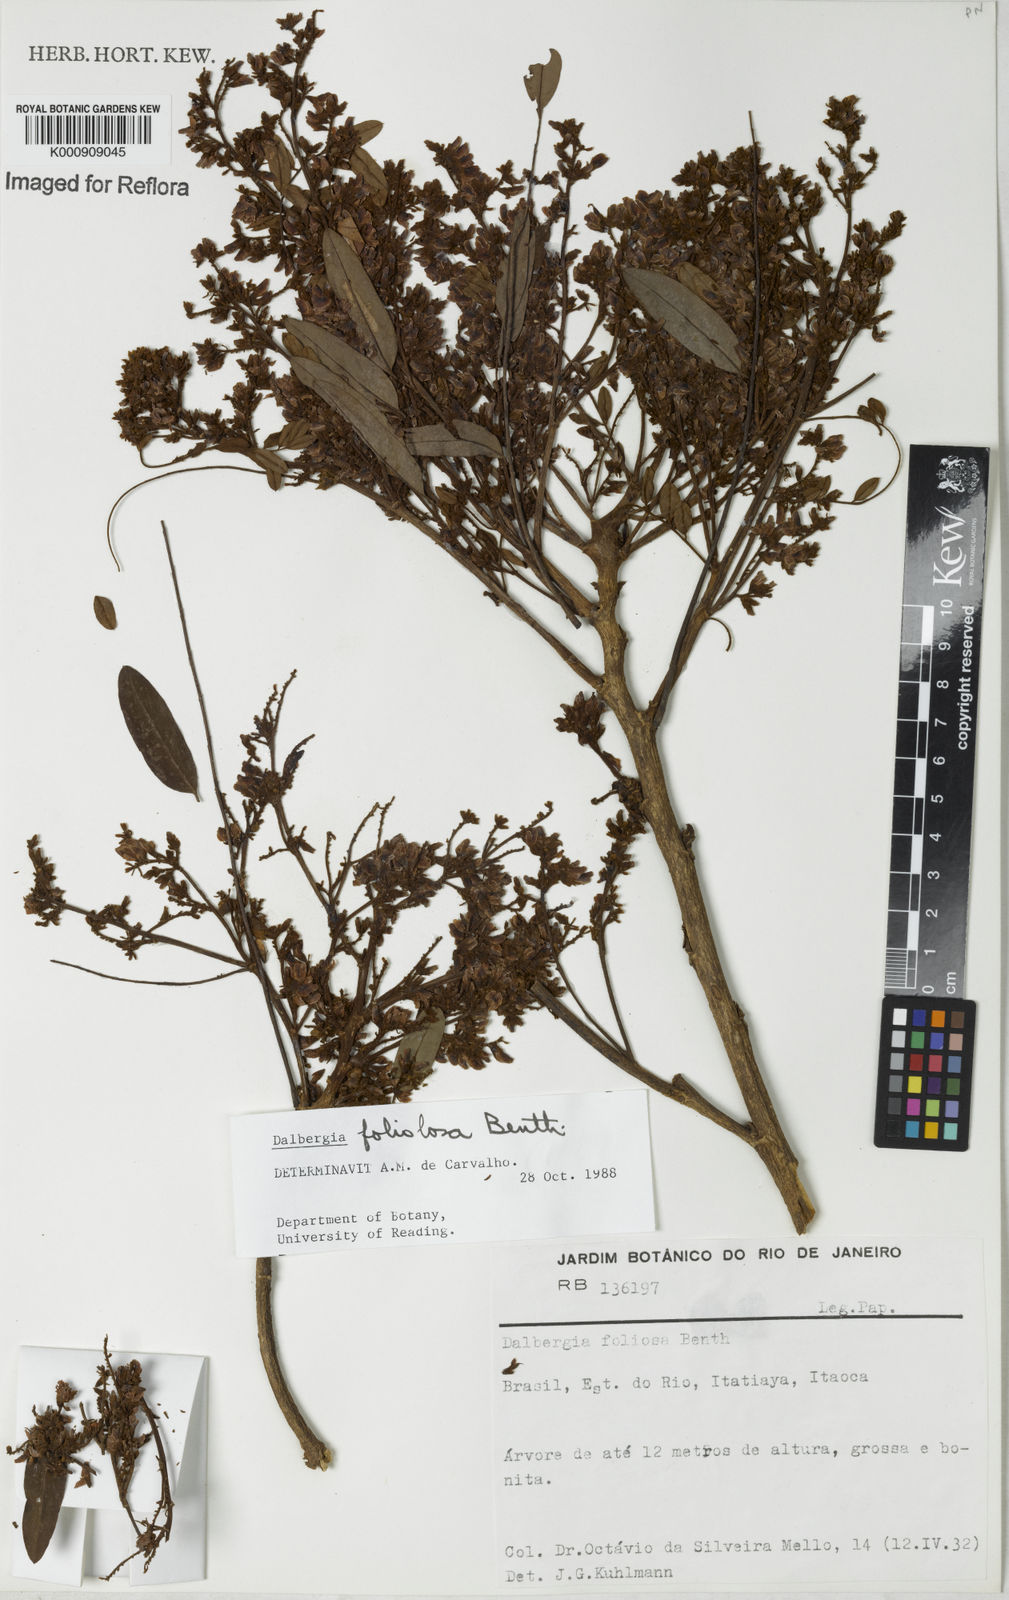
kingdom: Plantae
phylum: Tracheophyta
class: Magnoliopsida
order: Fabales
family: Fabaceae
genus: Dalbergia
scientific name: Dalbergia foliolosa
